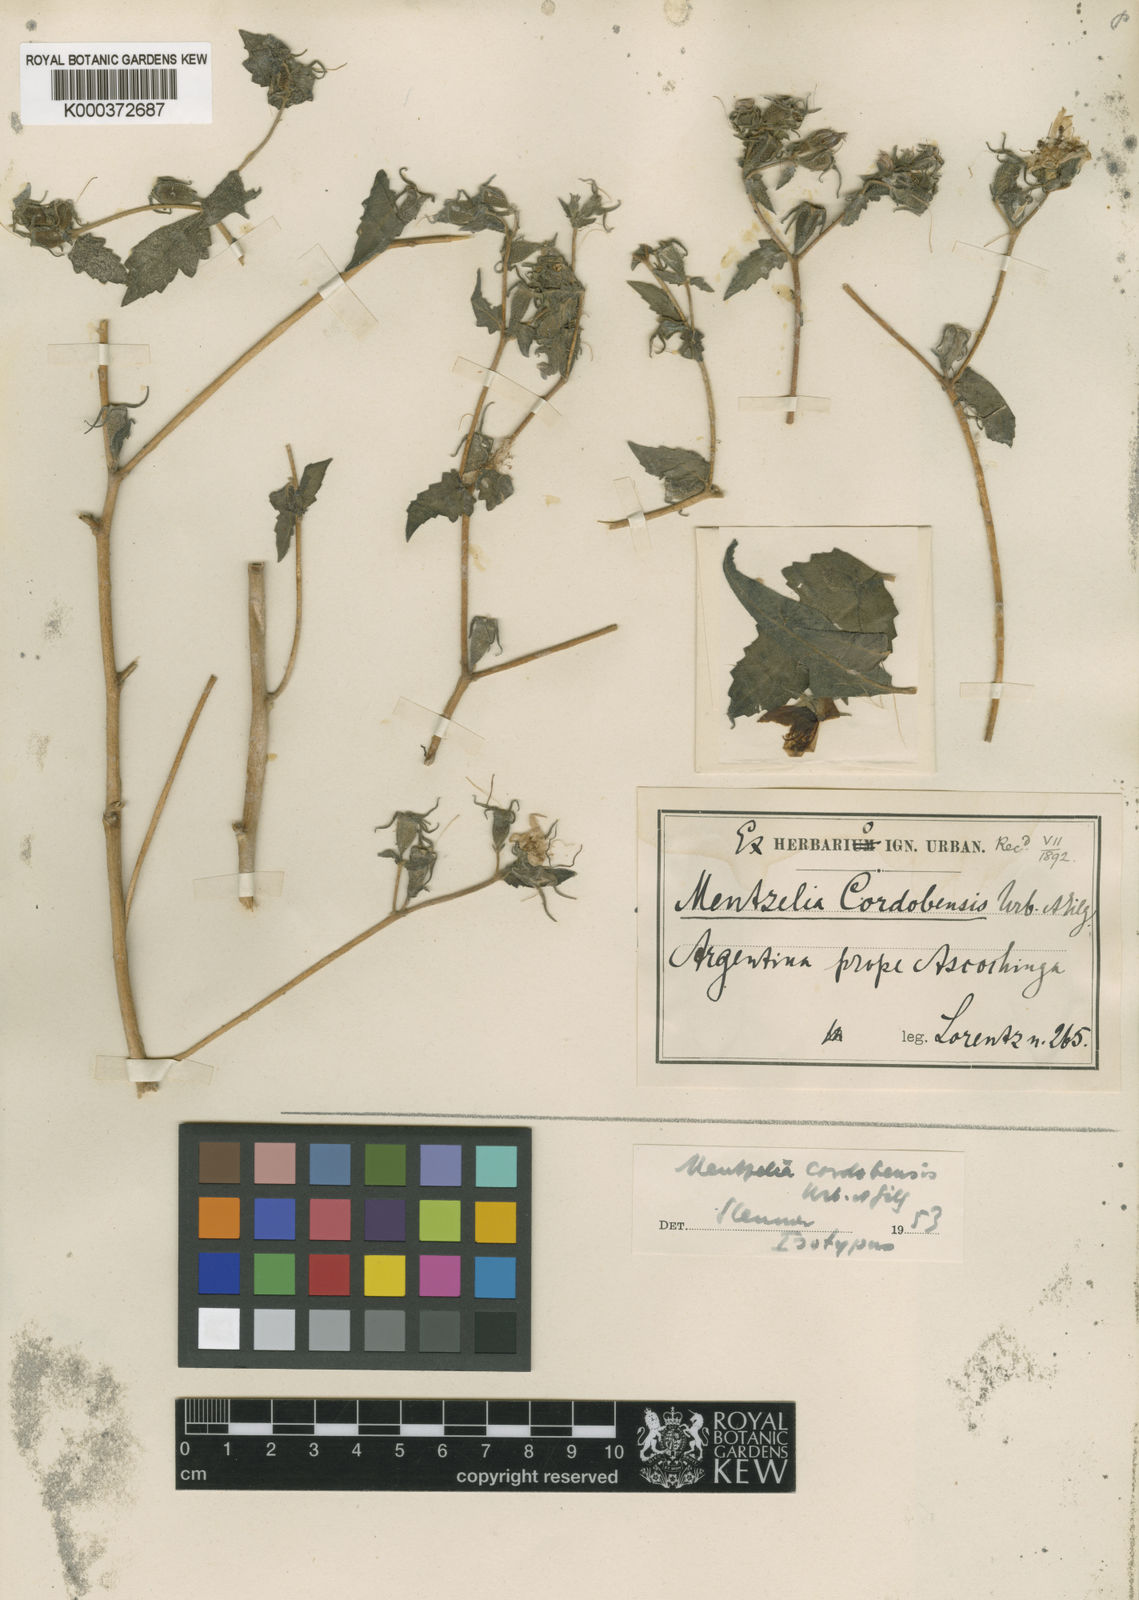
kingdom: Plantae
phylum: Tracheophyta
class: Magnoliopsida
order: Cornales
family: Loasaceae
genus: Mentzelia
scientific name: Mentzelia scabra
